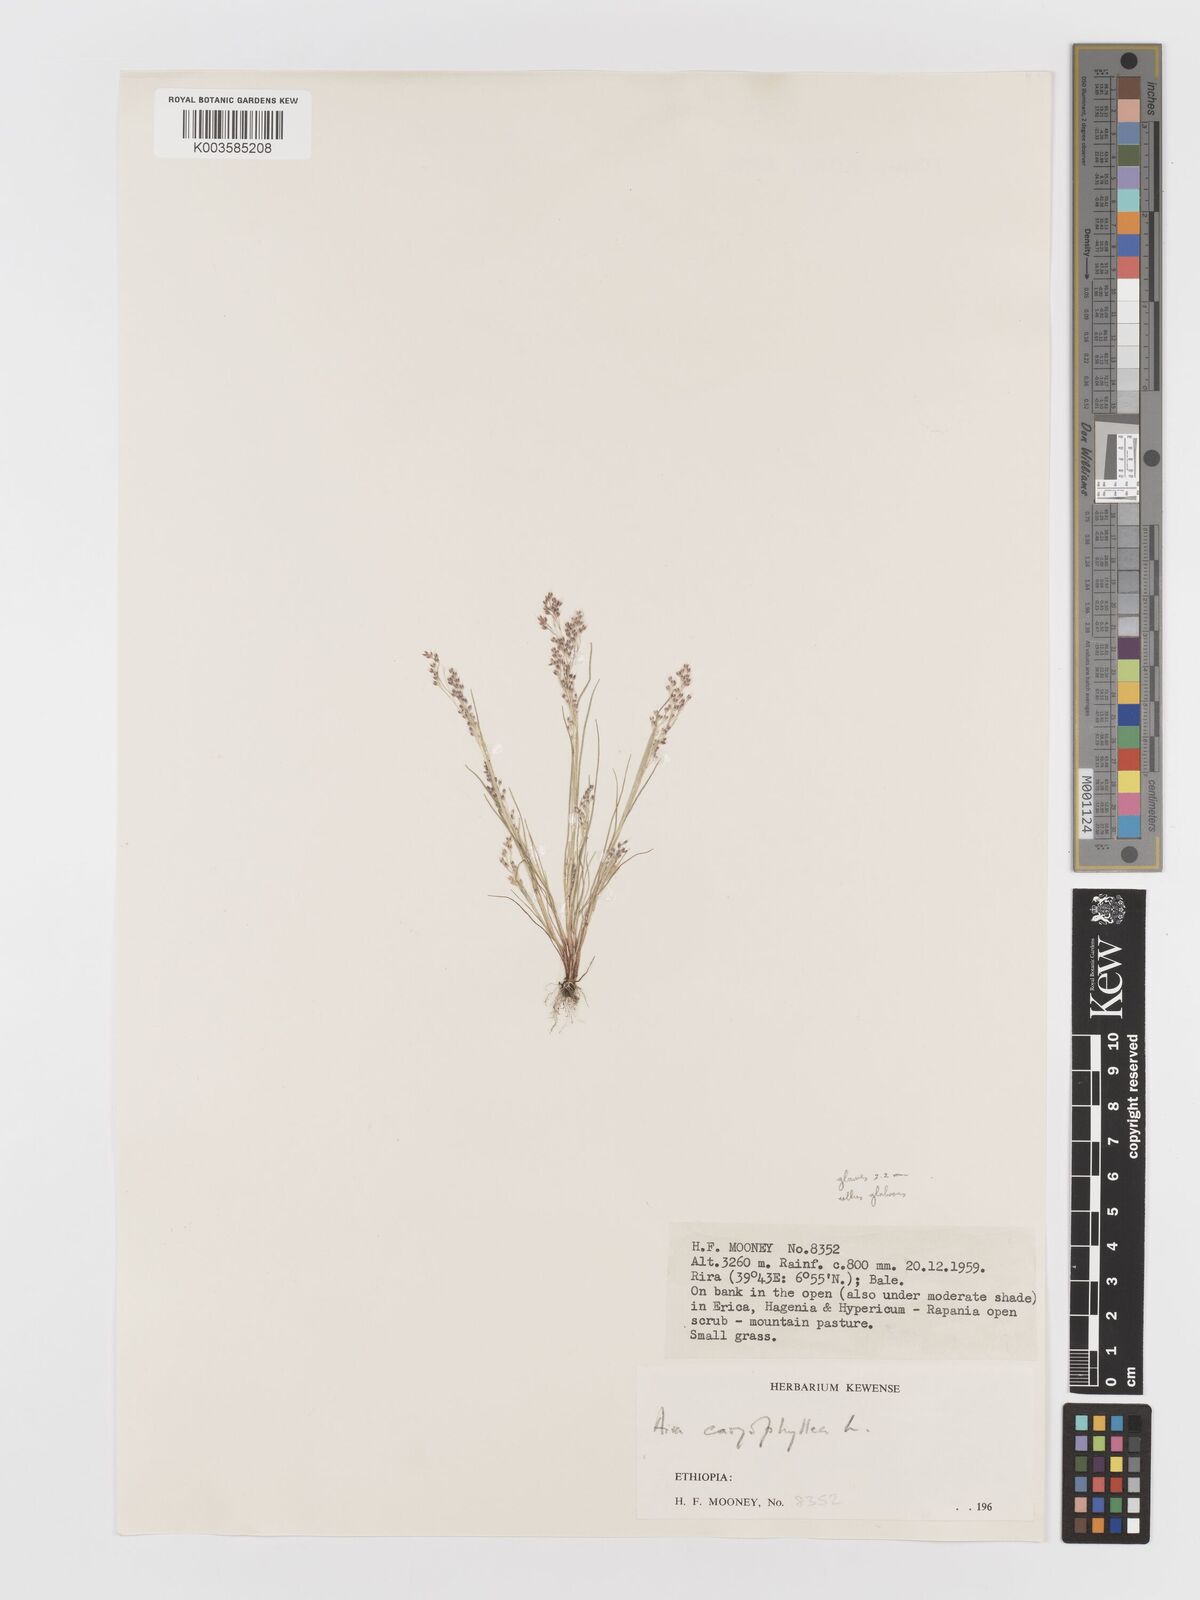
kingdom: Plantae
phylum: Tracheophyta
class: Liliopsida
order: Poales
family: Poaceae
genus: Aira
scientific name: Aira caryophyllea
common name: Silver hairgrass
